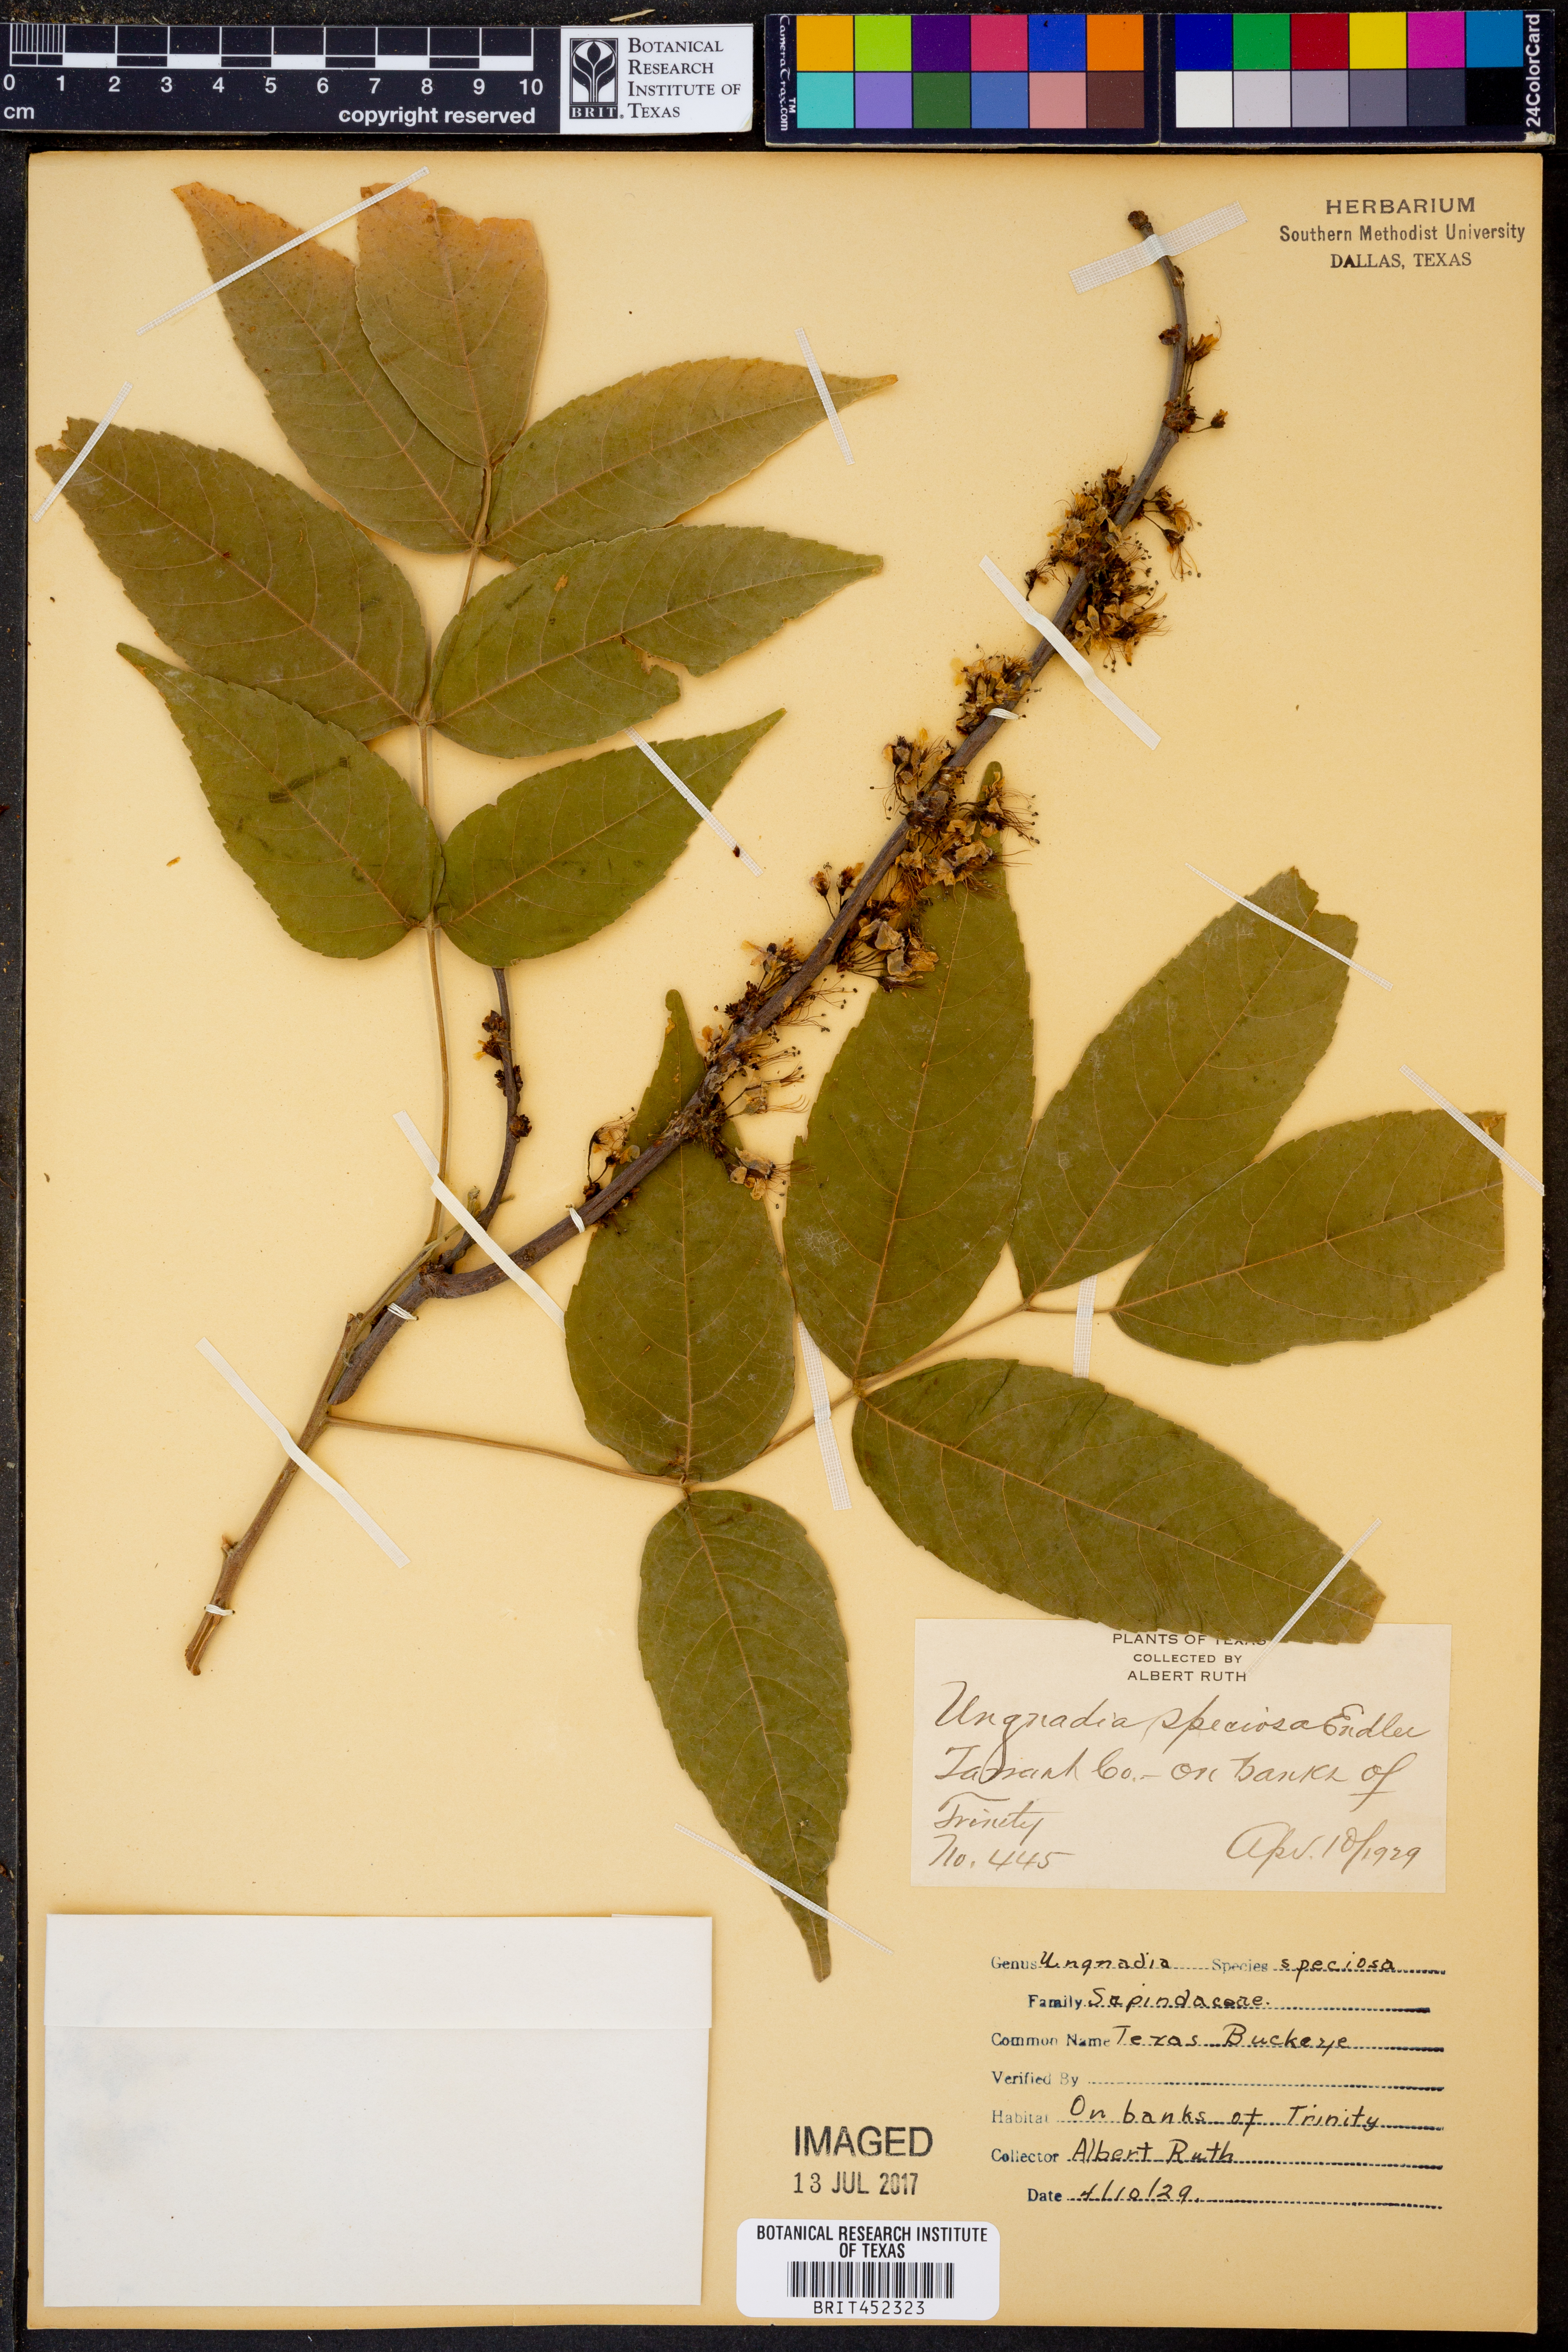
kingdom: Plantae
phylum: Tracheophyta
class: Magnoliopsida
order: Sapindales
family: Sapindaceae
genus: Ungnadia
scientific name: Ungnadia speciosa
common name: Texas-buckeye
